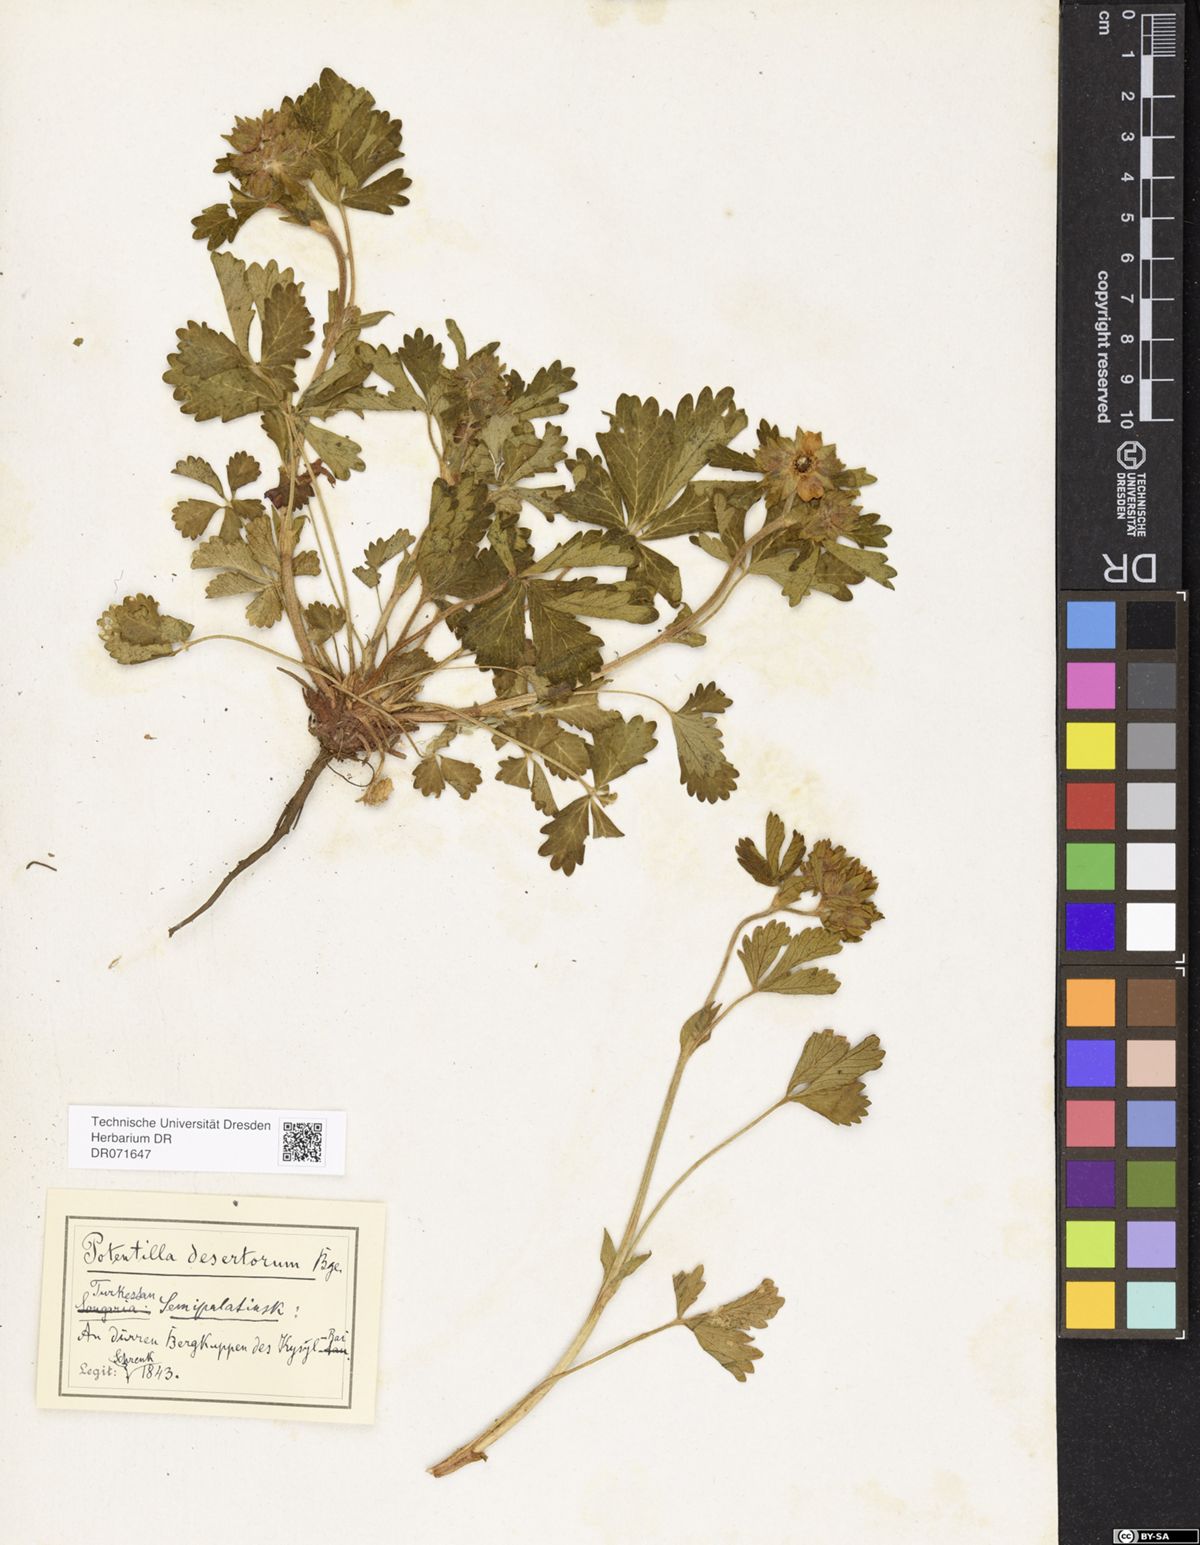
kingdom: Plantae
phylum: Tracheophyta
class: Magnoliopsida
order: Rosales
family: Rosaceae
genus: Potentilla
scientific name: Potentilla desertorum
